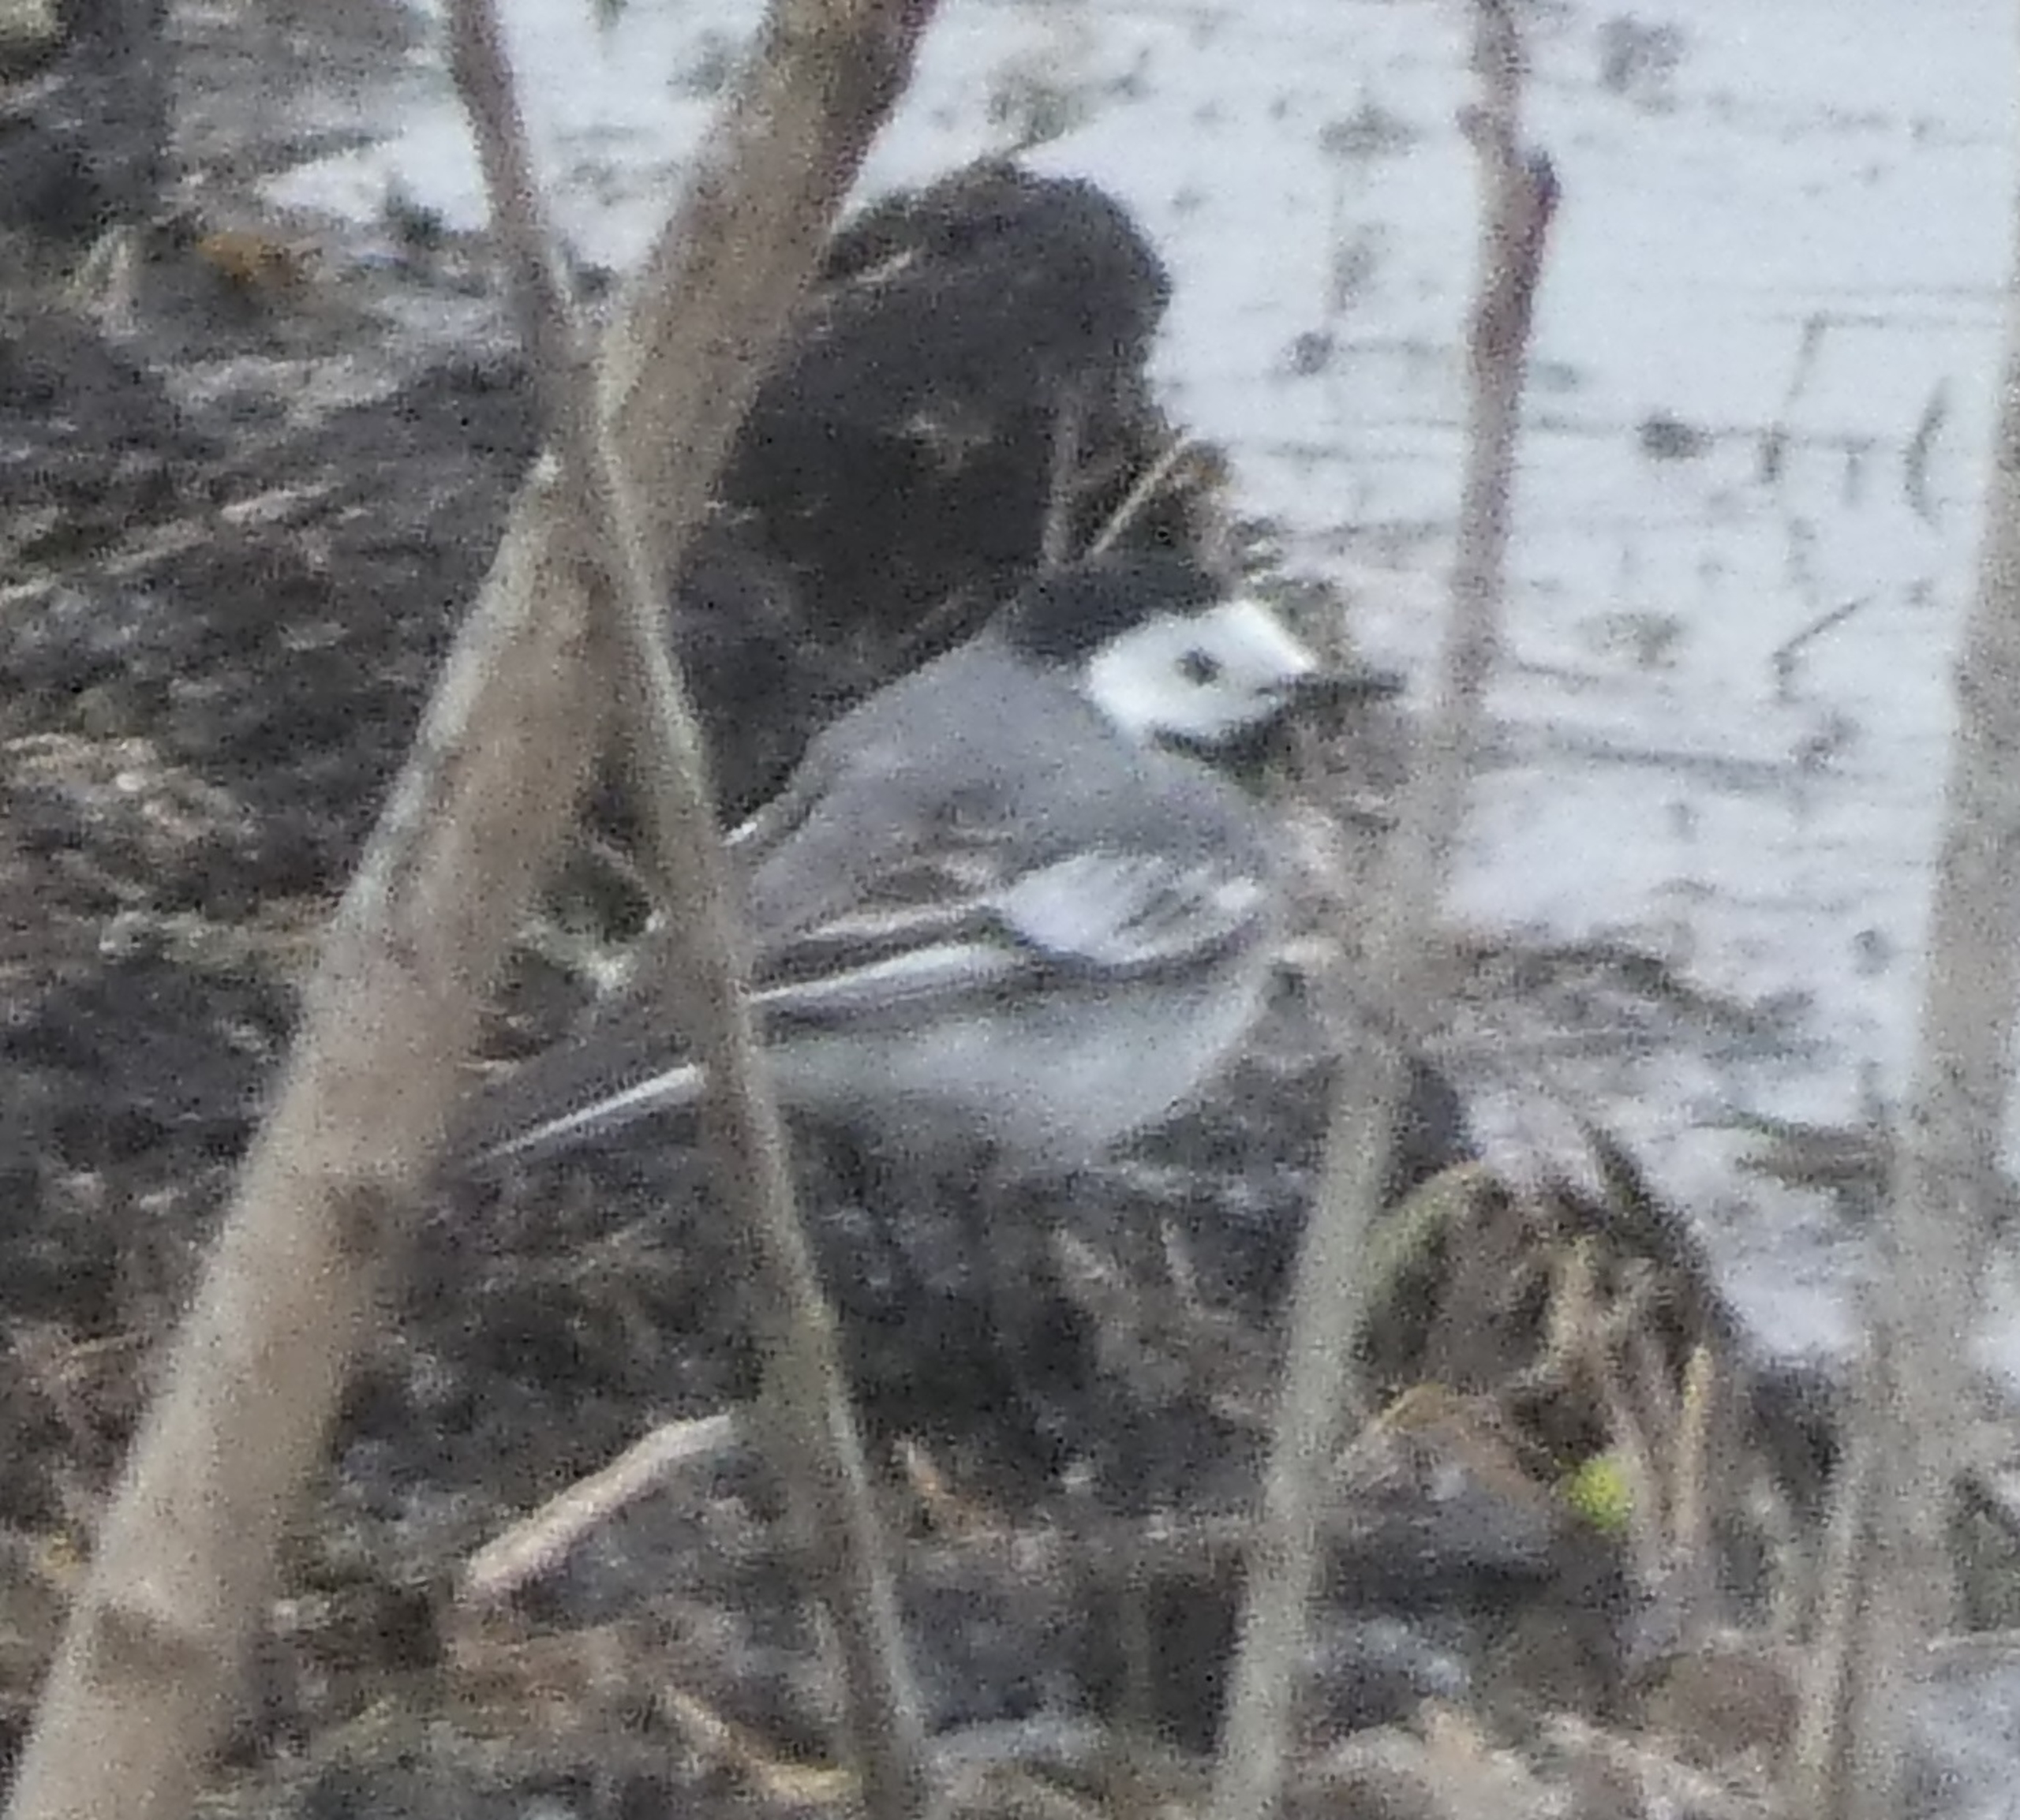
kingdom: Animalia
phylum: Chordata
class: Aves
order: Passeriformes
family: Motacillidae
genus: Motacilla
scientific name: Motacilla alba
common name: Hvid vipstjert
